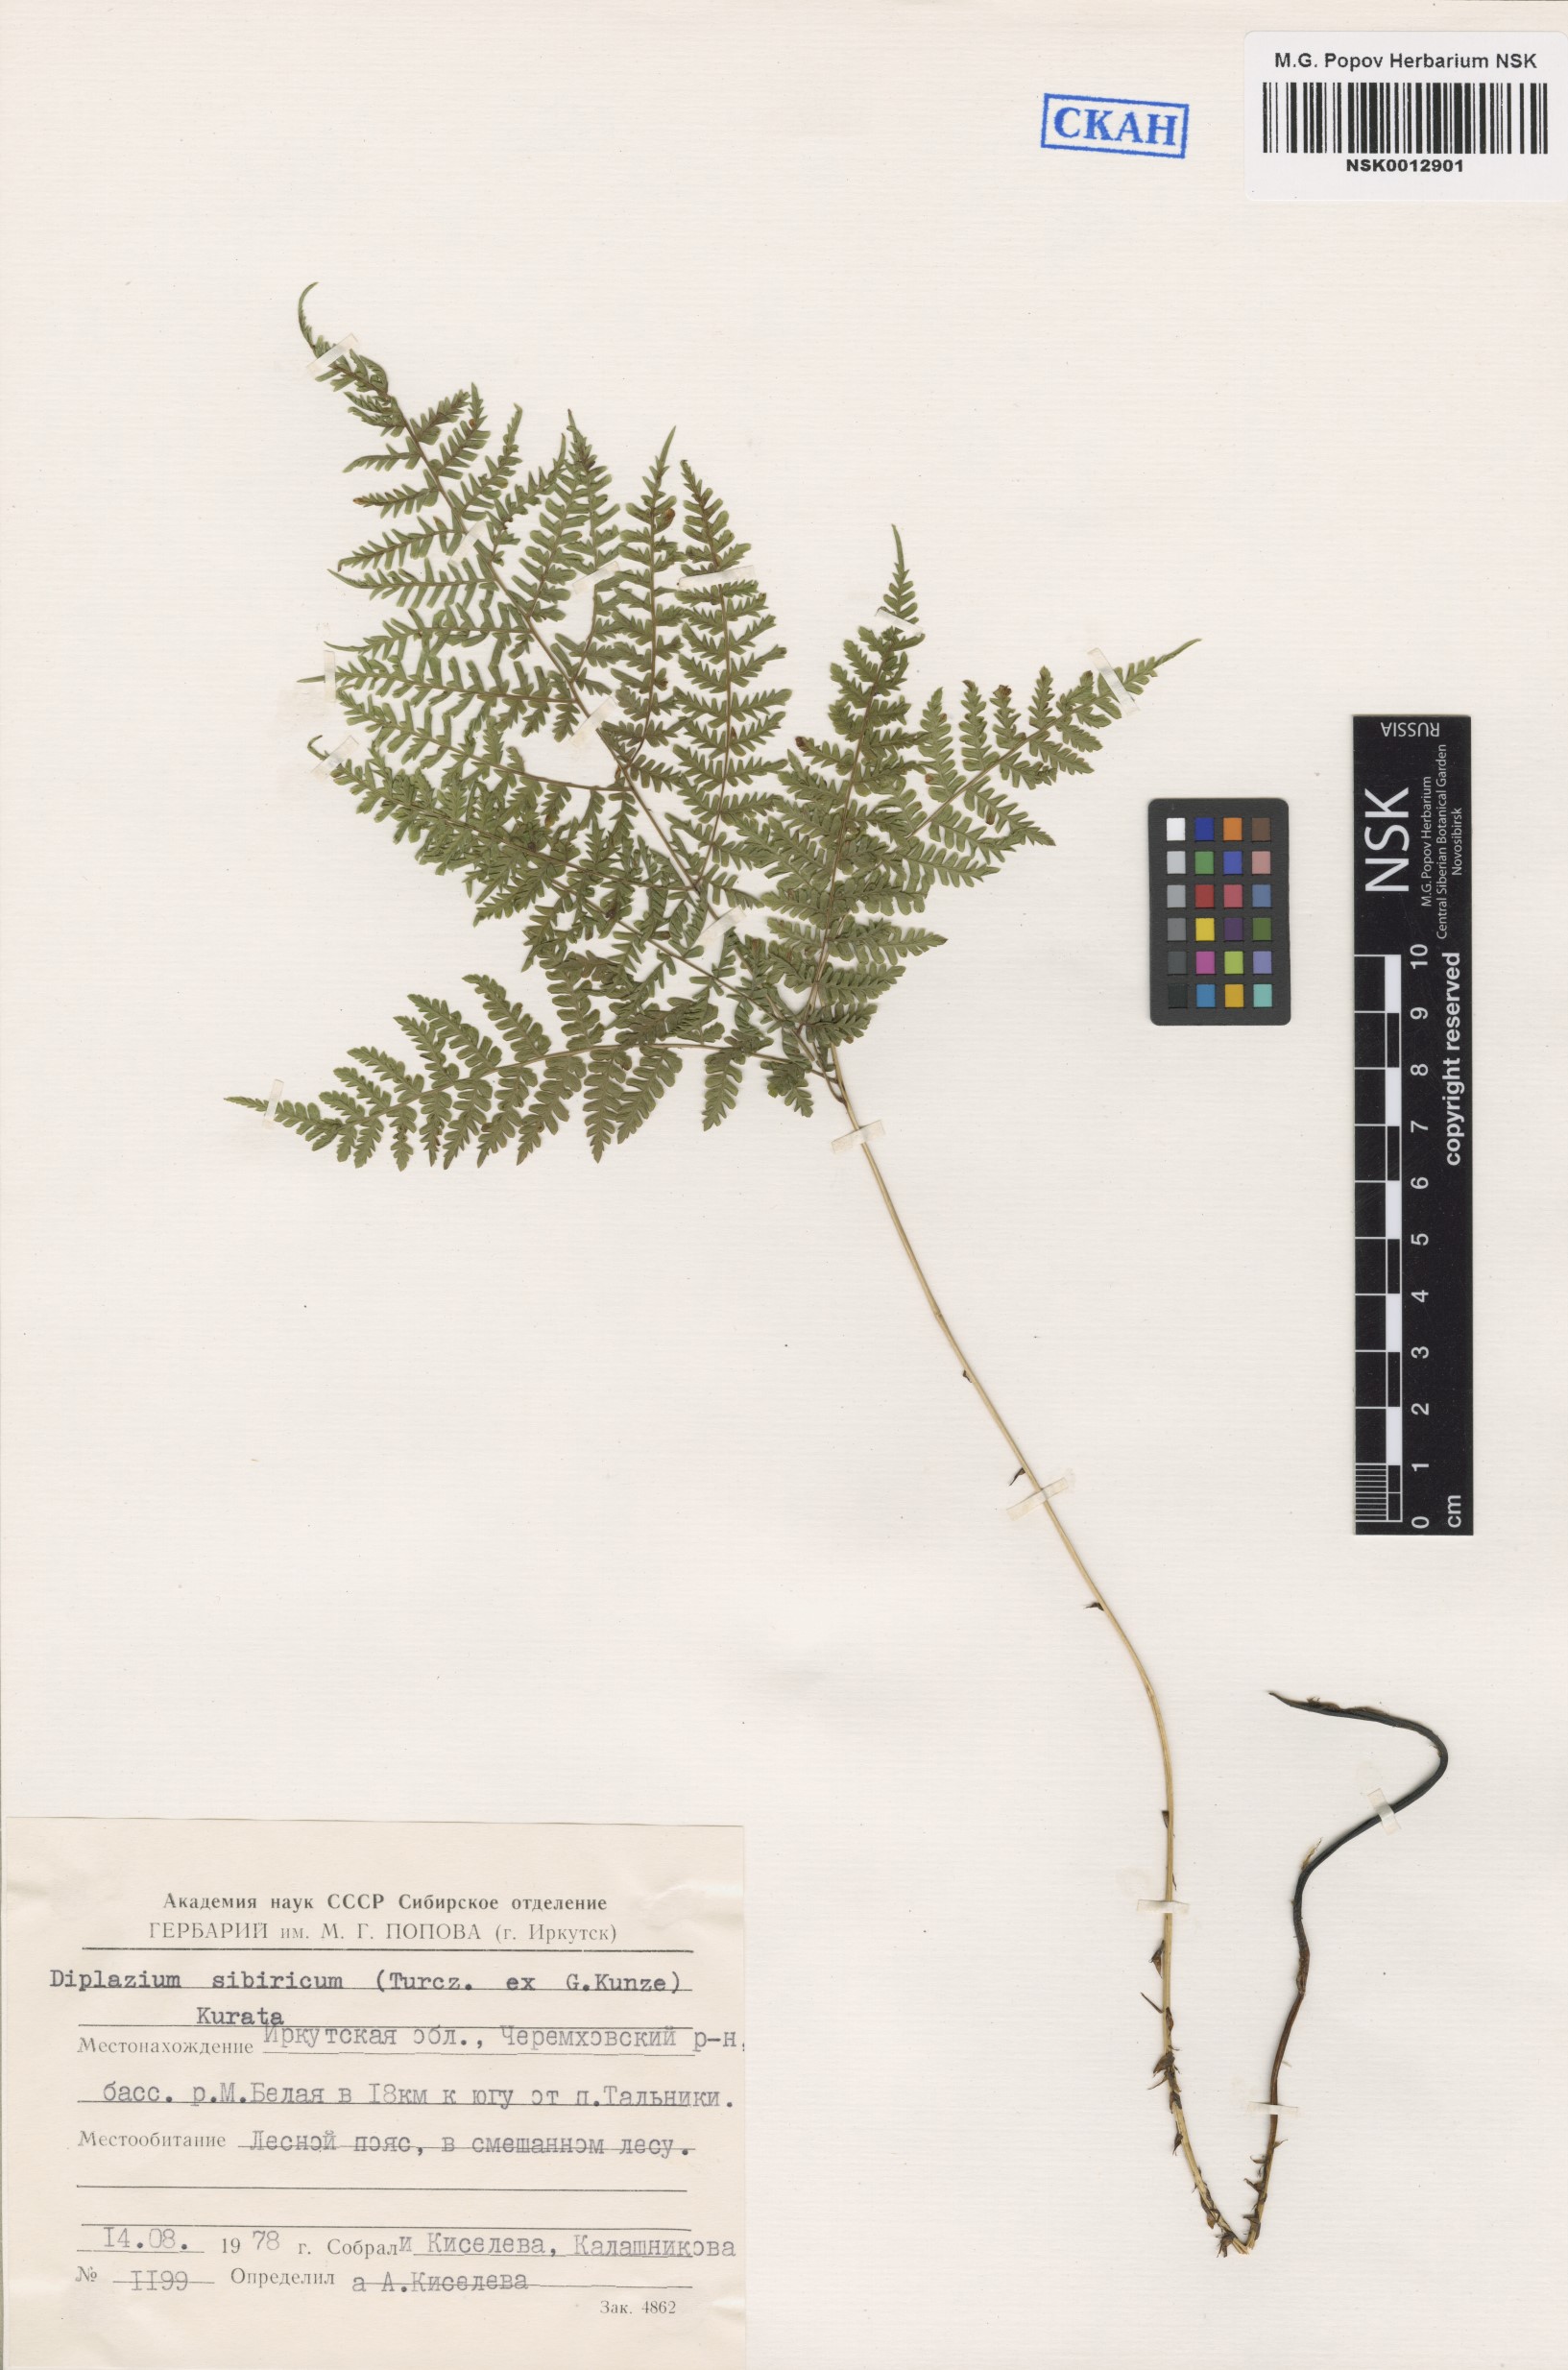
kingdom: Plantae
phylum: Tracheophyta
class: Polypodiopsida
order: Polypodiales
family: Athyriaceae
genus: Diplazium
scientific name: Diplazium sibiricum
